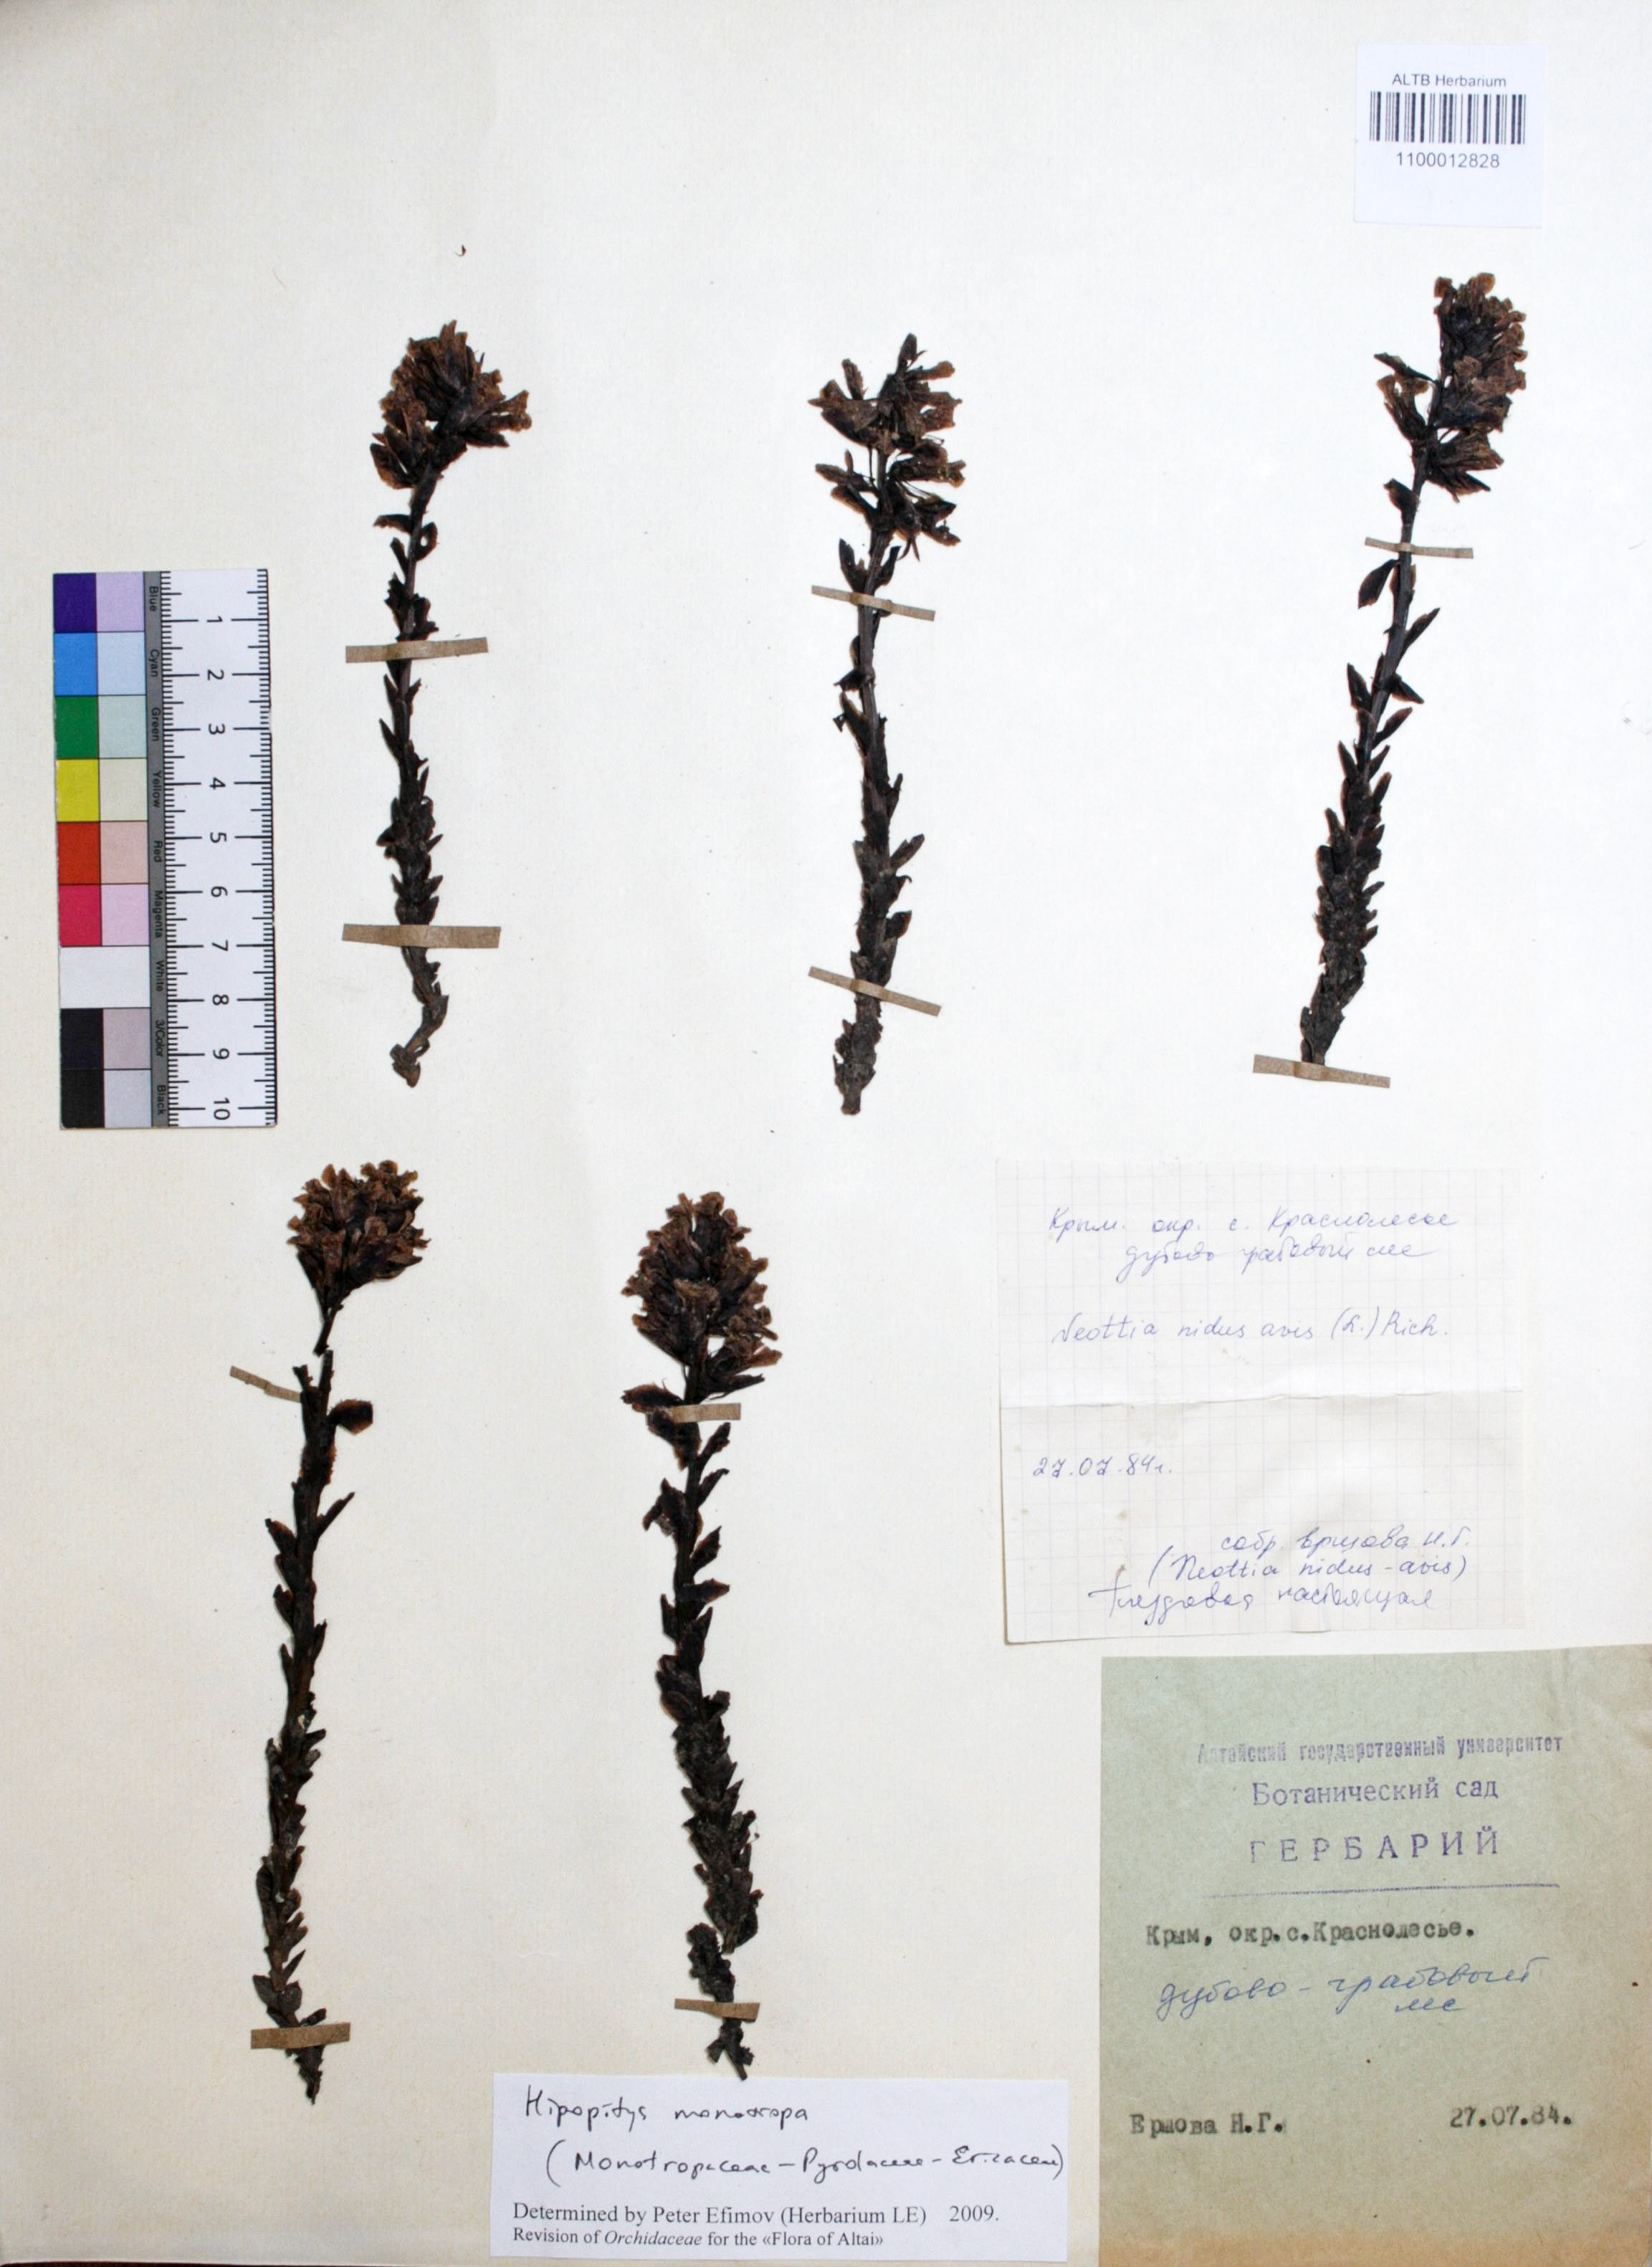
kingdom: Plantae
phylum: Tracheophyta
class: Liliopsida
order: Asparagales
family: Orchidaceae
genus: Neottia
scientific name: Neottia nidus-avis
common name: Bird's-nest orchid
